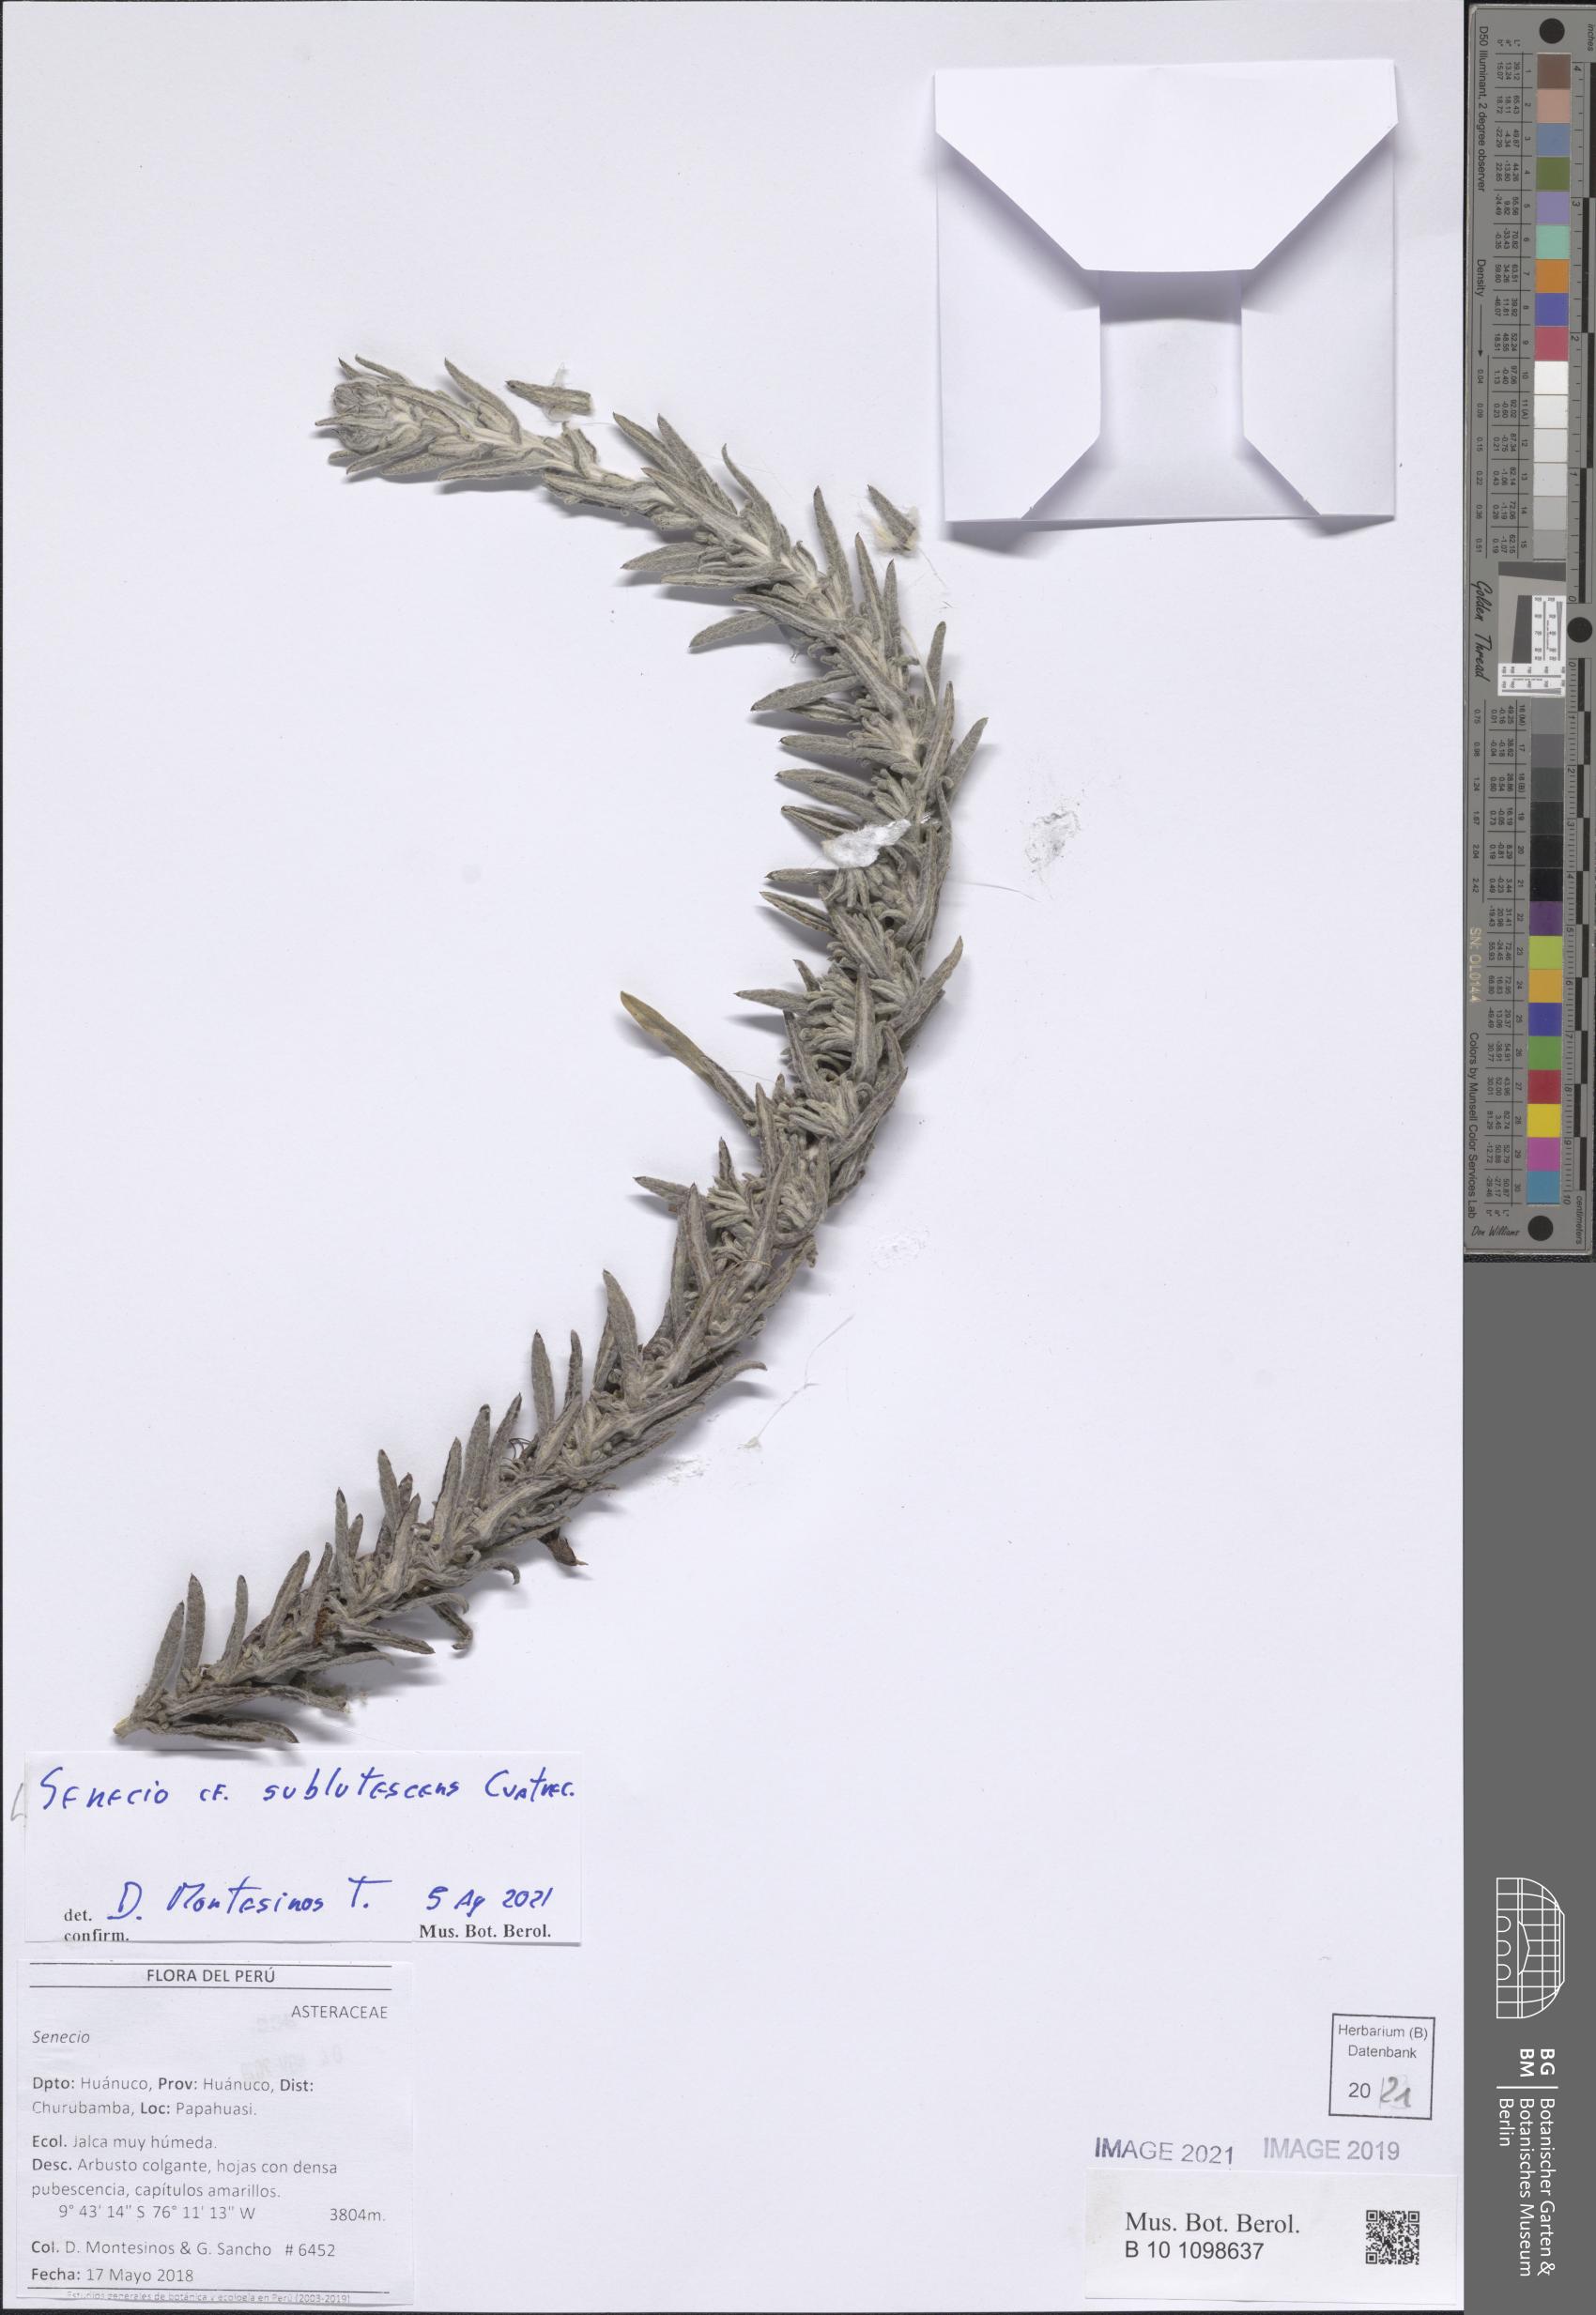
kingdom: Plantae
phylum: Tracheophyta
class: Magnoliopsida
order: Asterales
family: Asteraceae
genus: Senecio
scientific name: Senecio sublutescens
